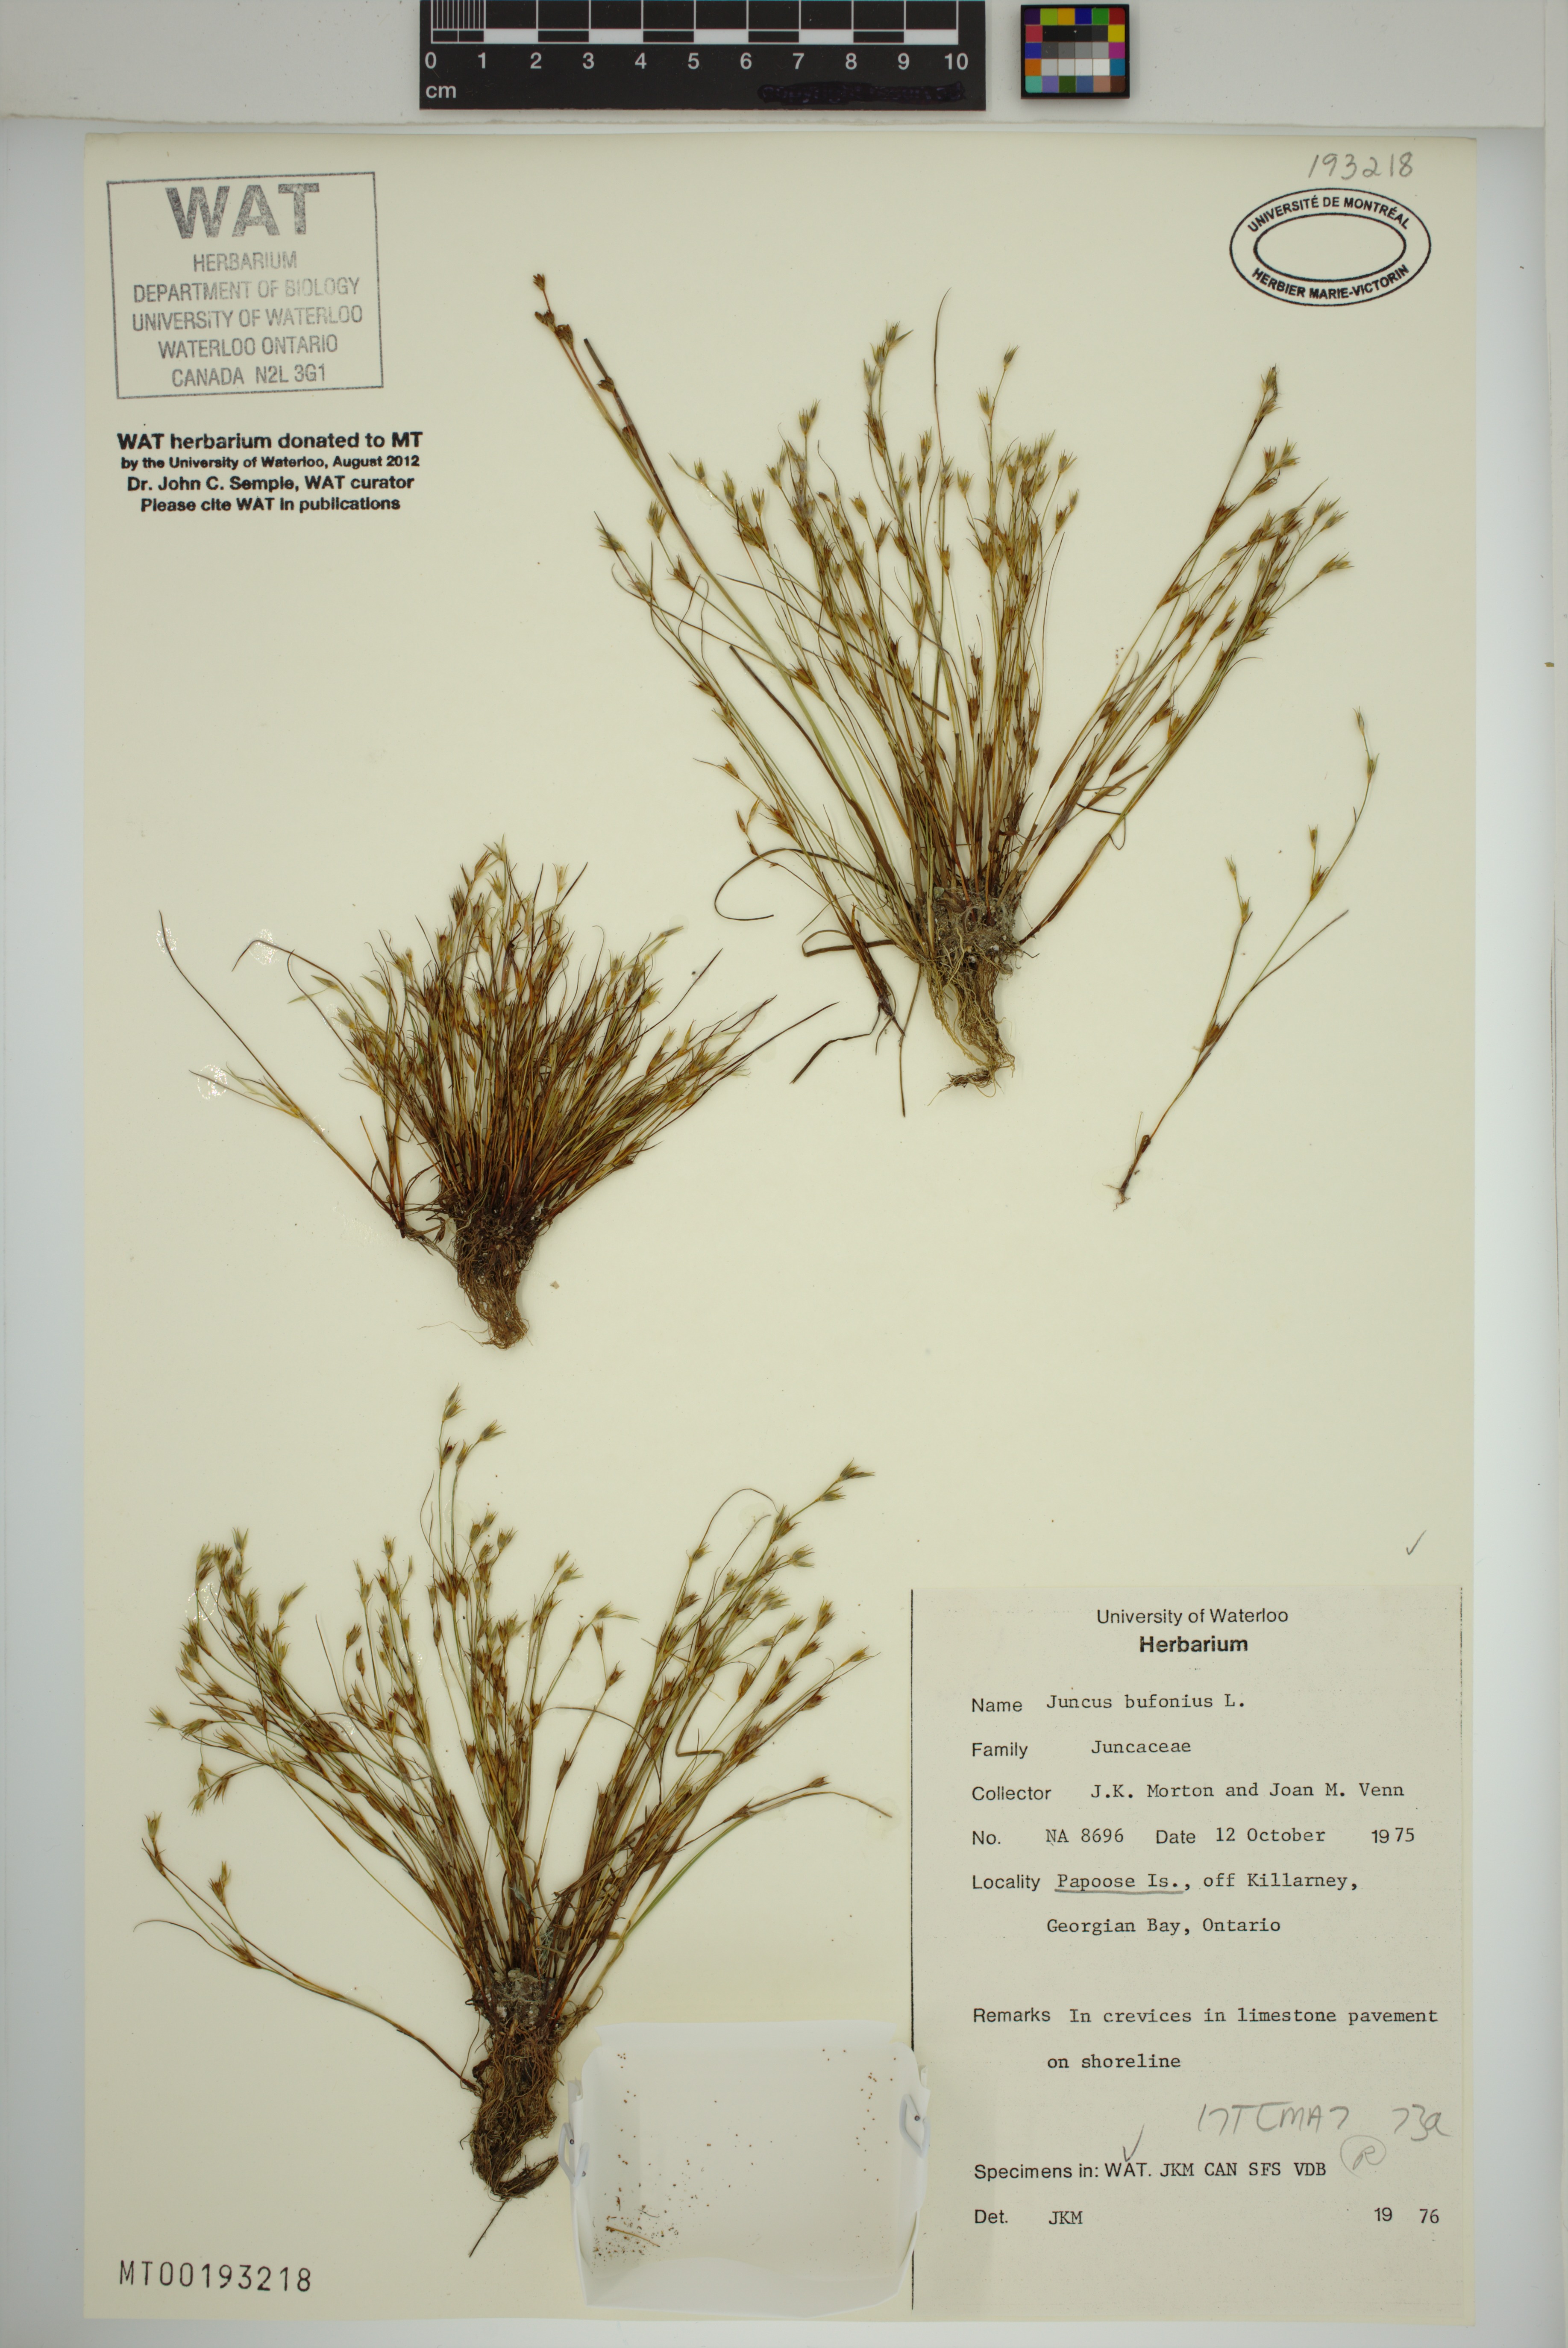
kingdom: Plantae
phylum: Tracheophyta
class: Liliopsida
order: Poales
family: Juncaceae
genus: Juncus
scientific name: Juncus bufonius
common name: Toad rush
